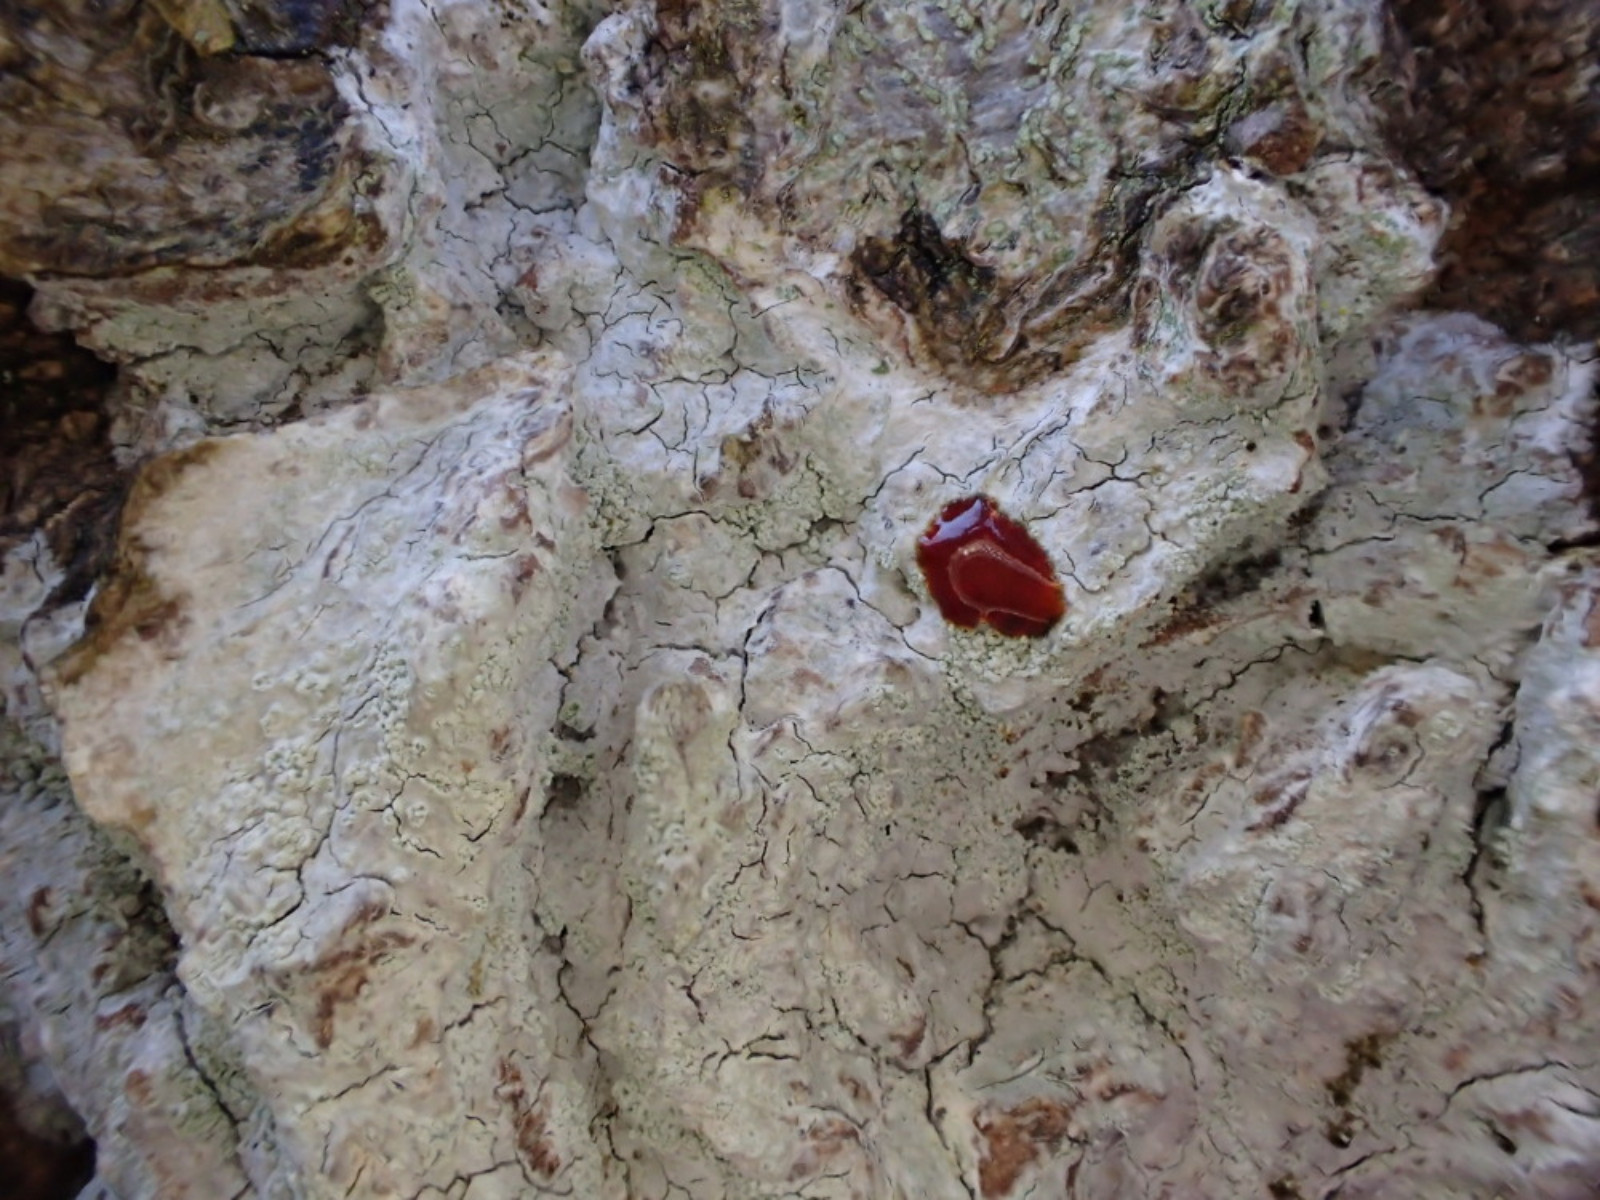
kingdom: Fungi
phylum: Ascomycota
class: Lecanoromycetes
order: Ostropales
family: Phlyctidaceae
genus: Phlyctis
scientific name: Phlyctis argena
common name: almindelig sølvlav
